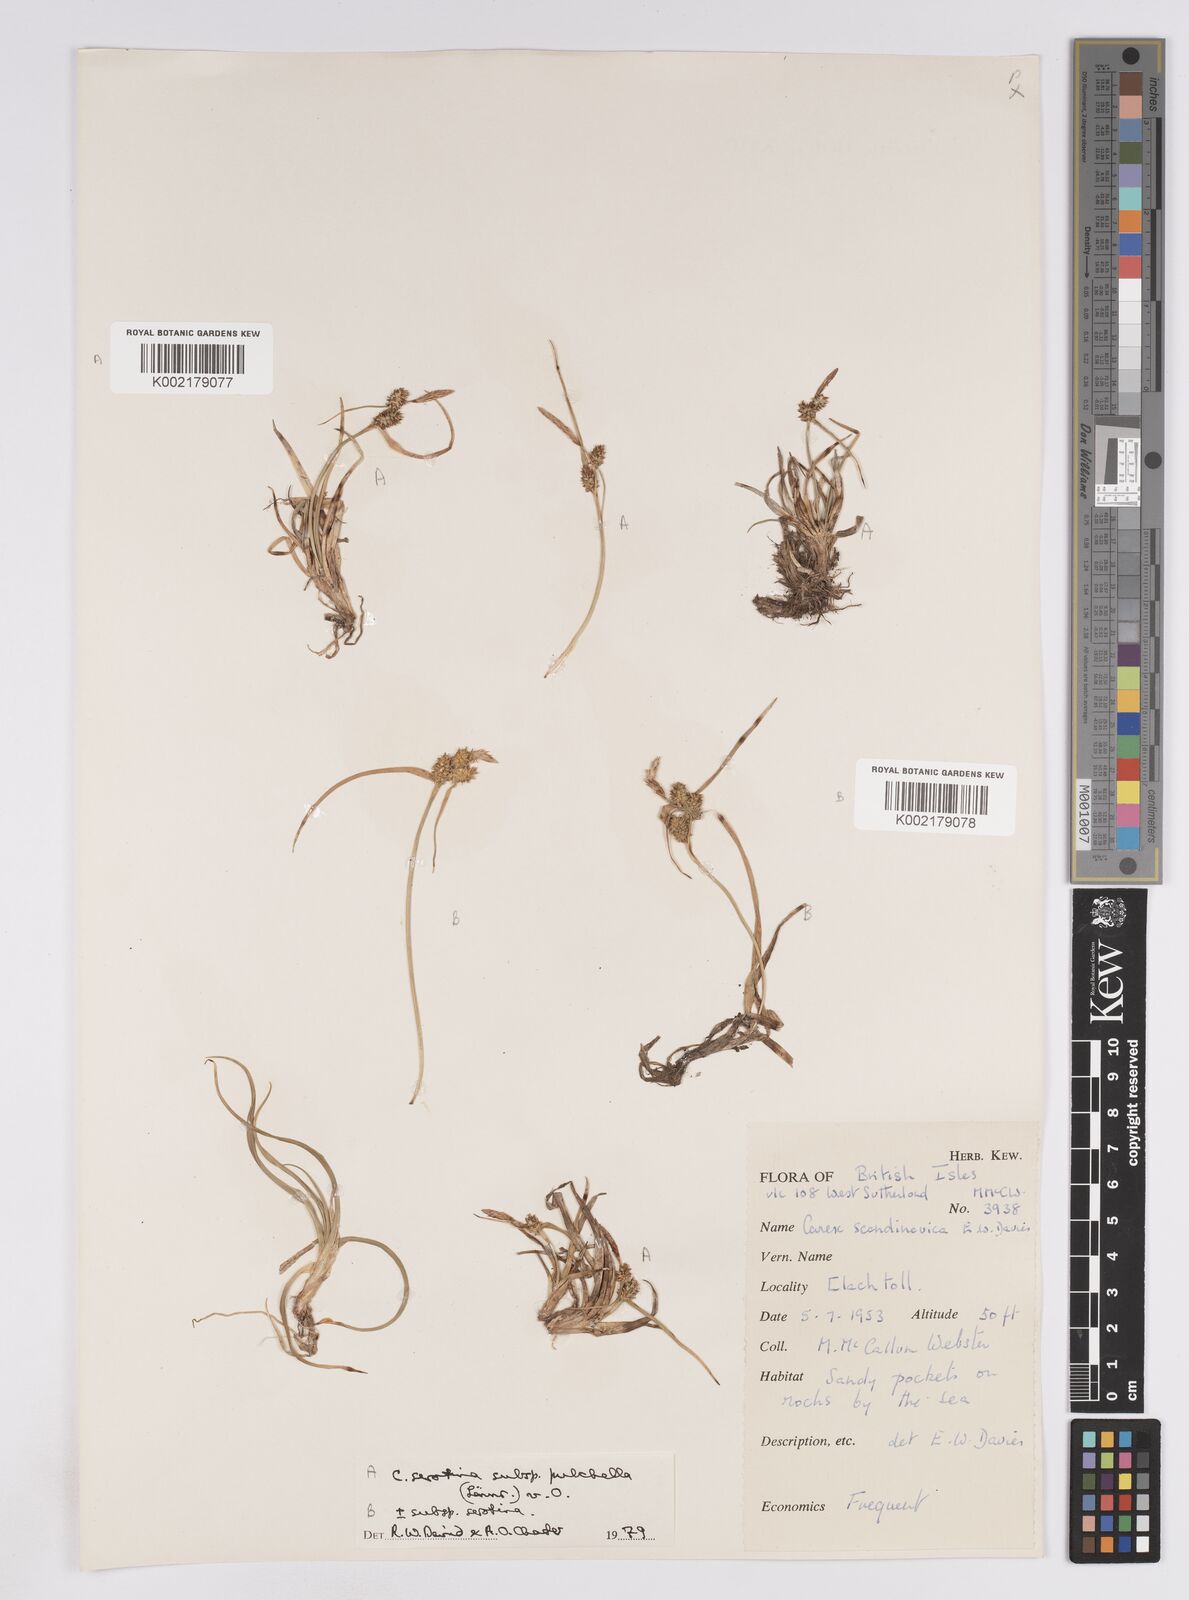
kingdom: Plantae
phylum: Tracheophyta
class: Liliopsida
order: Poales
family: Cyperaceae
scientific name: Cyperaceae
